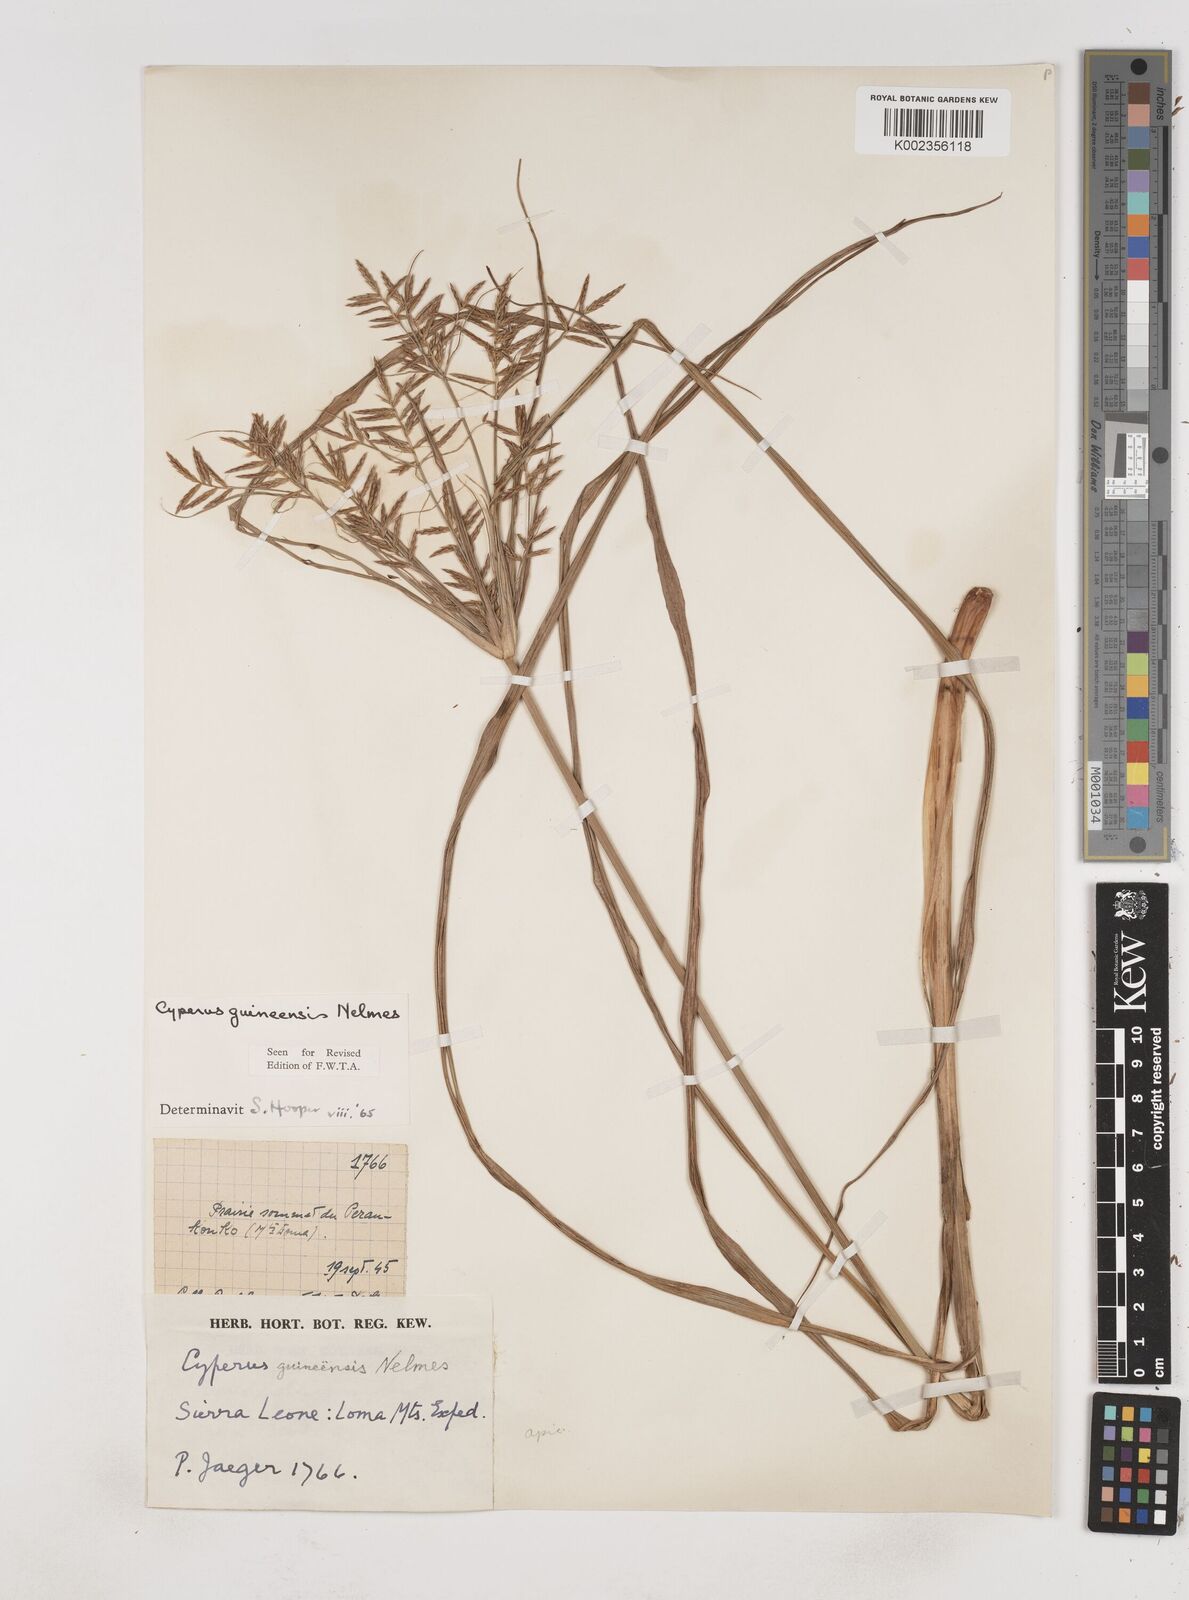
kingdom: Plantae
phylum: Tracheophyta
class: Liliopsida
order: Poales
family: Cyperaceae
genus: Cyperus
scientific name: Cyperus tenuiculmis
